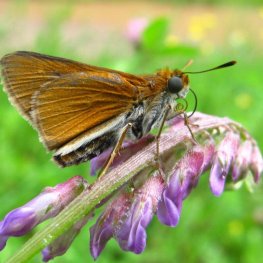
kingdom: Animalia
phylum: Arthropoda
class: Insecta
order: Lepidoptera
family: Hesperiidae
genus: Euphyes
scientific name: Euphyes bimacula
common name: Two-spotted Skipper
